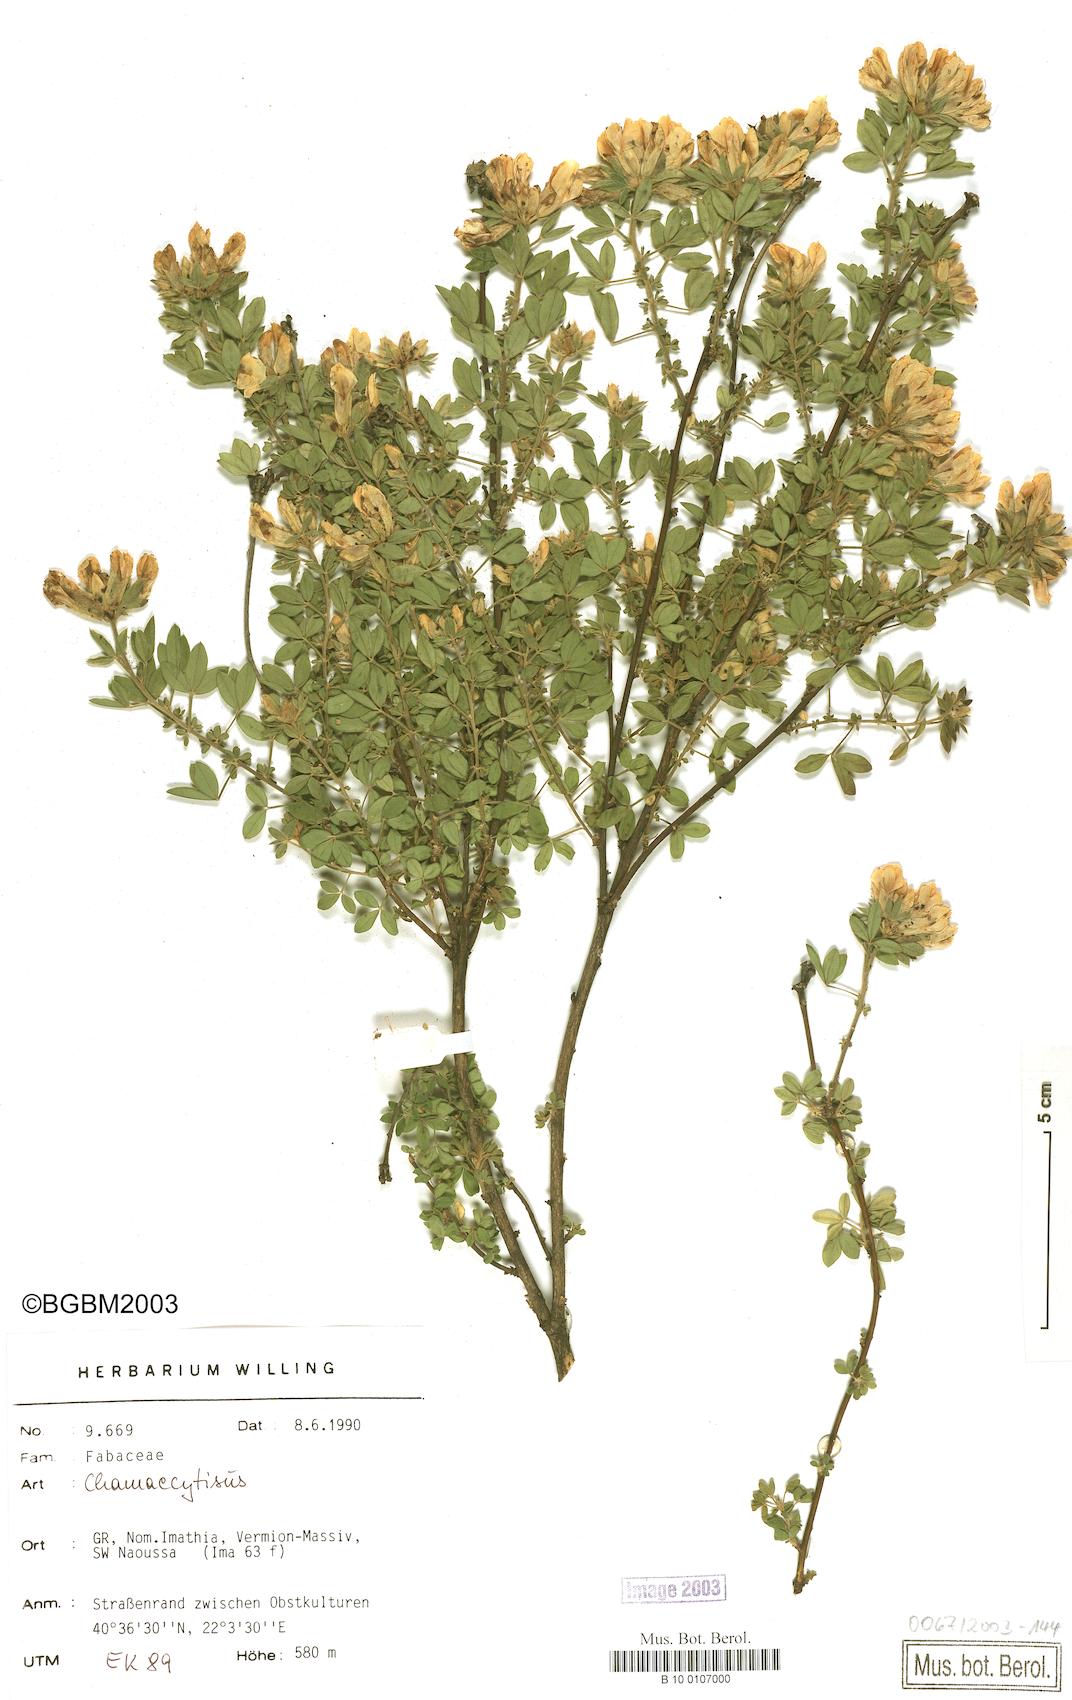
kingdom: Plantae
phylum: Tracheophyta
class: Magnoliopsida
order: Fabales
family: Fabaceae
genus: Chamaecytisus
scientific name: Chamaecytisus
